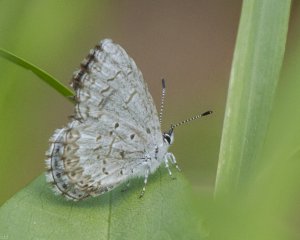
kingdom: Animalia
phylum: Arthropoda
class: Insecta
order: Lepidoptera
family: Lycaenidae
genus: Cyaniris
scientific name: Cyaniris neglecta
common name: Summer Azure
